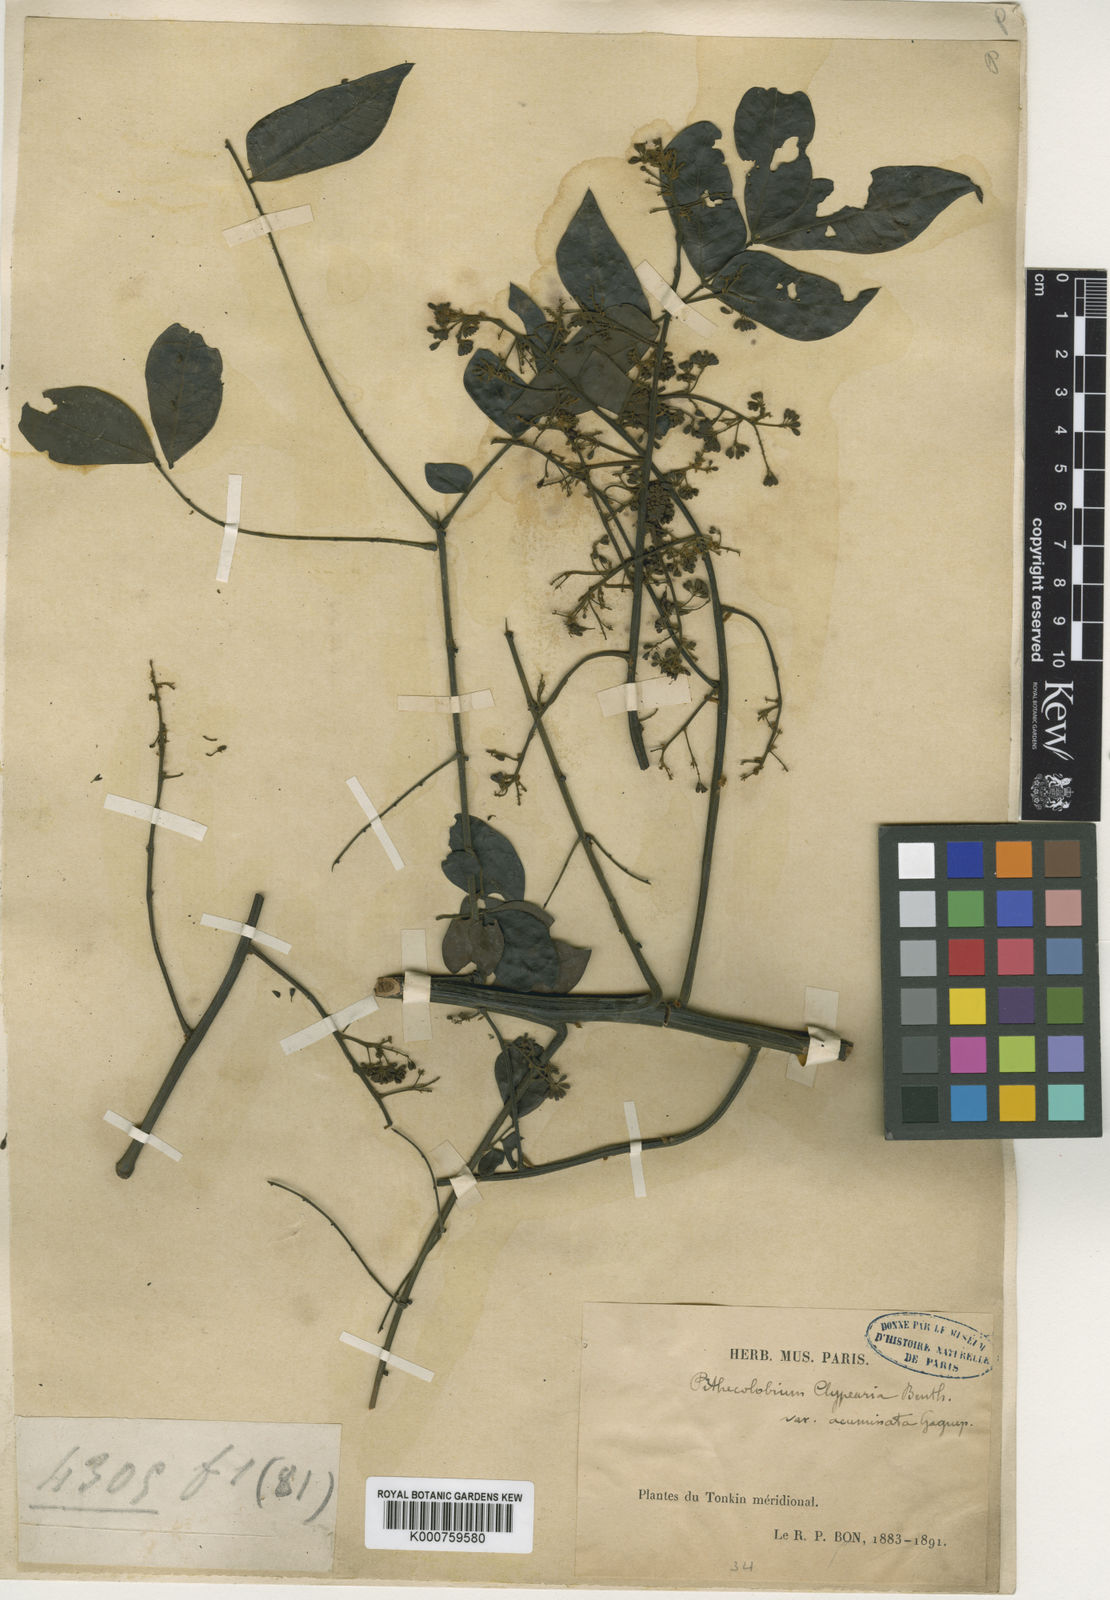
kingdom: Plantae
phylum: Tracheophyta
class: Magnoliopsida
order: Fabales
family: Fabaceae
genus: Archidendron
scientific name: Archidendron clypearia
